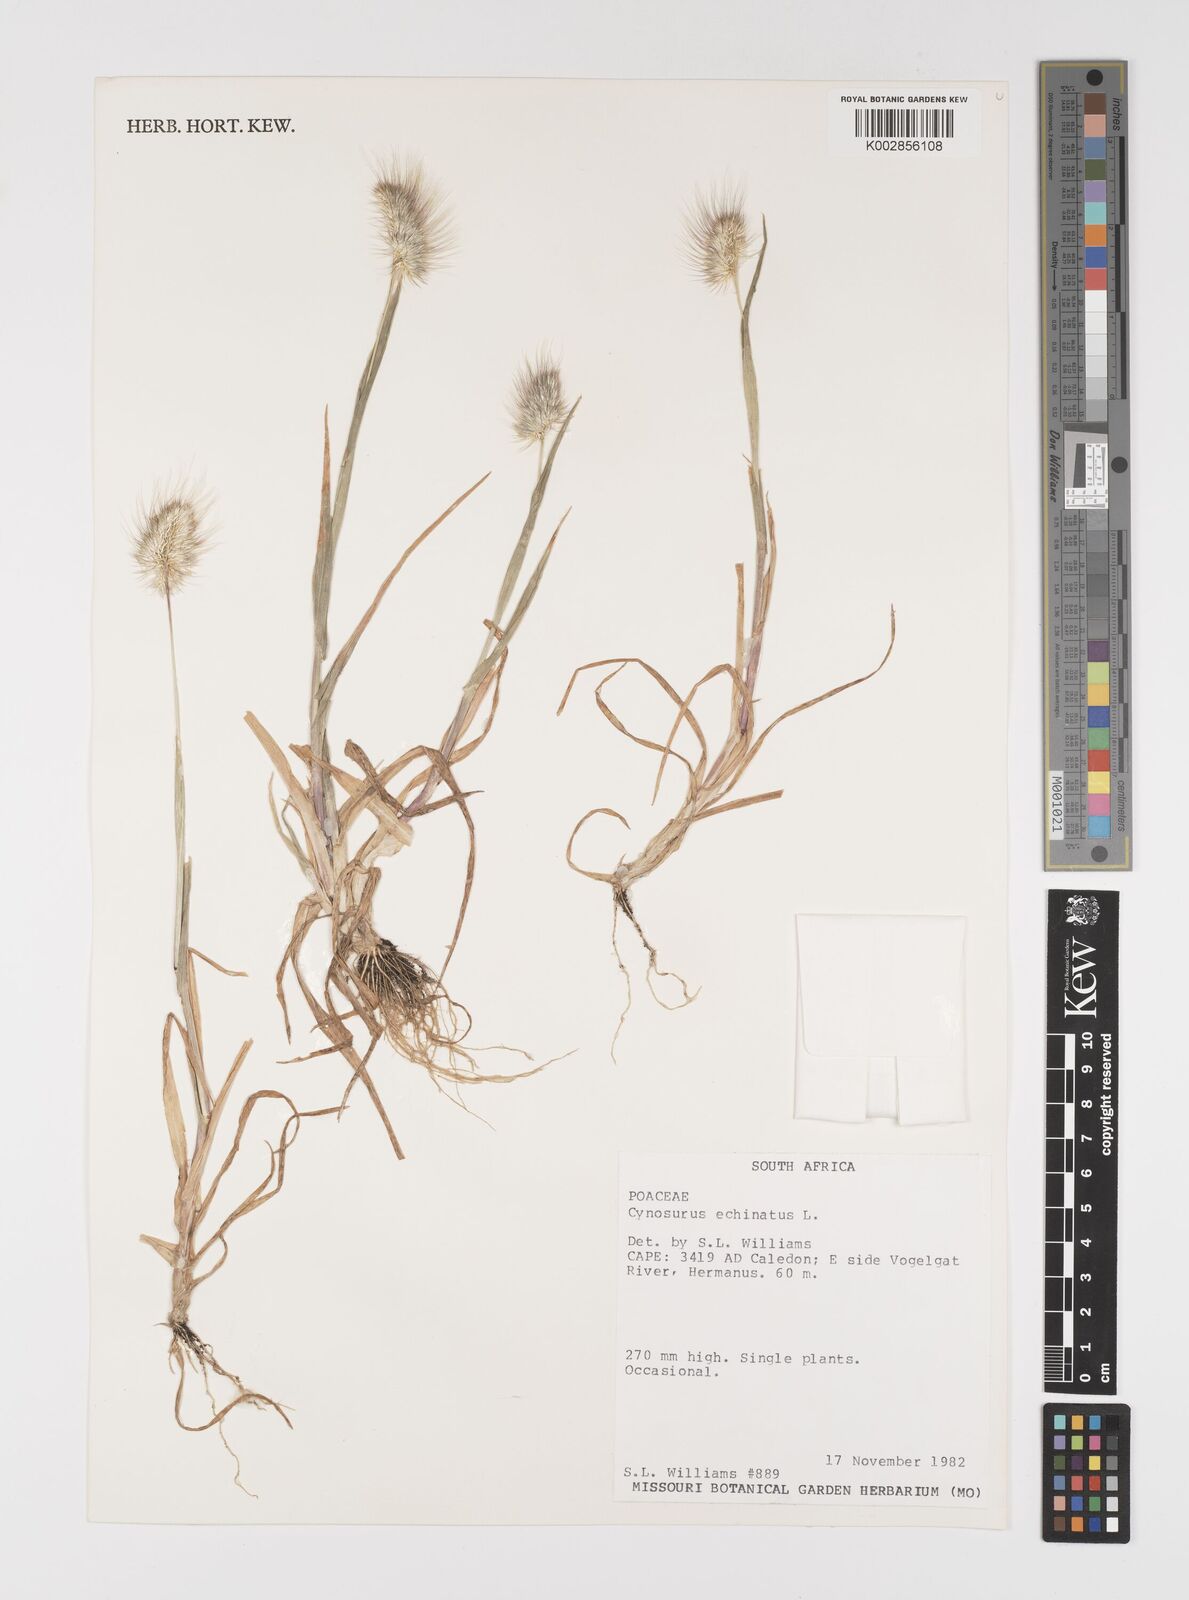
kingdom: Plantae
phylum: Tracheophyta
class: Liliopsida
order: Poales
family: Poaceae
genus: Cynosurus
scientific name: Cynosurus echinatus
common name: Rough dog's-tail
